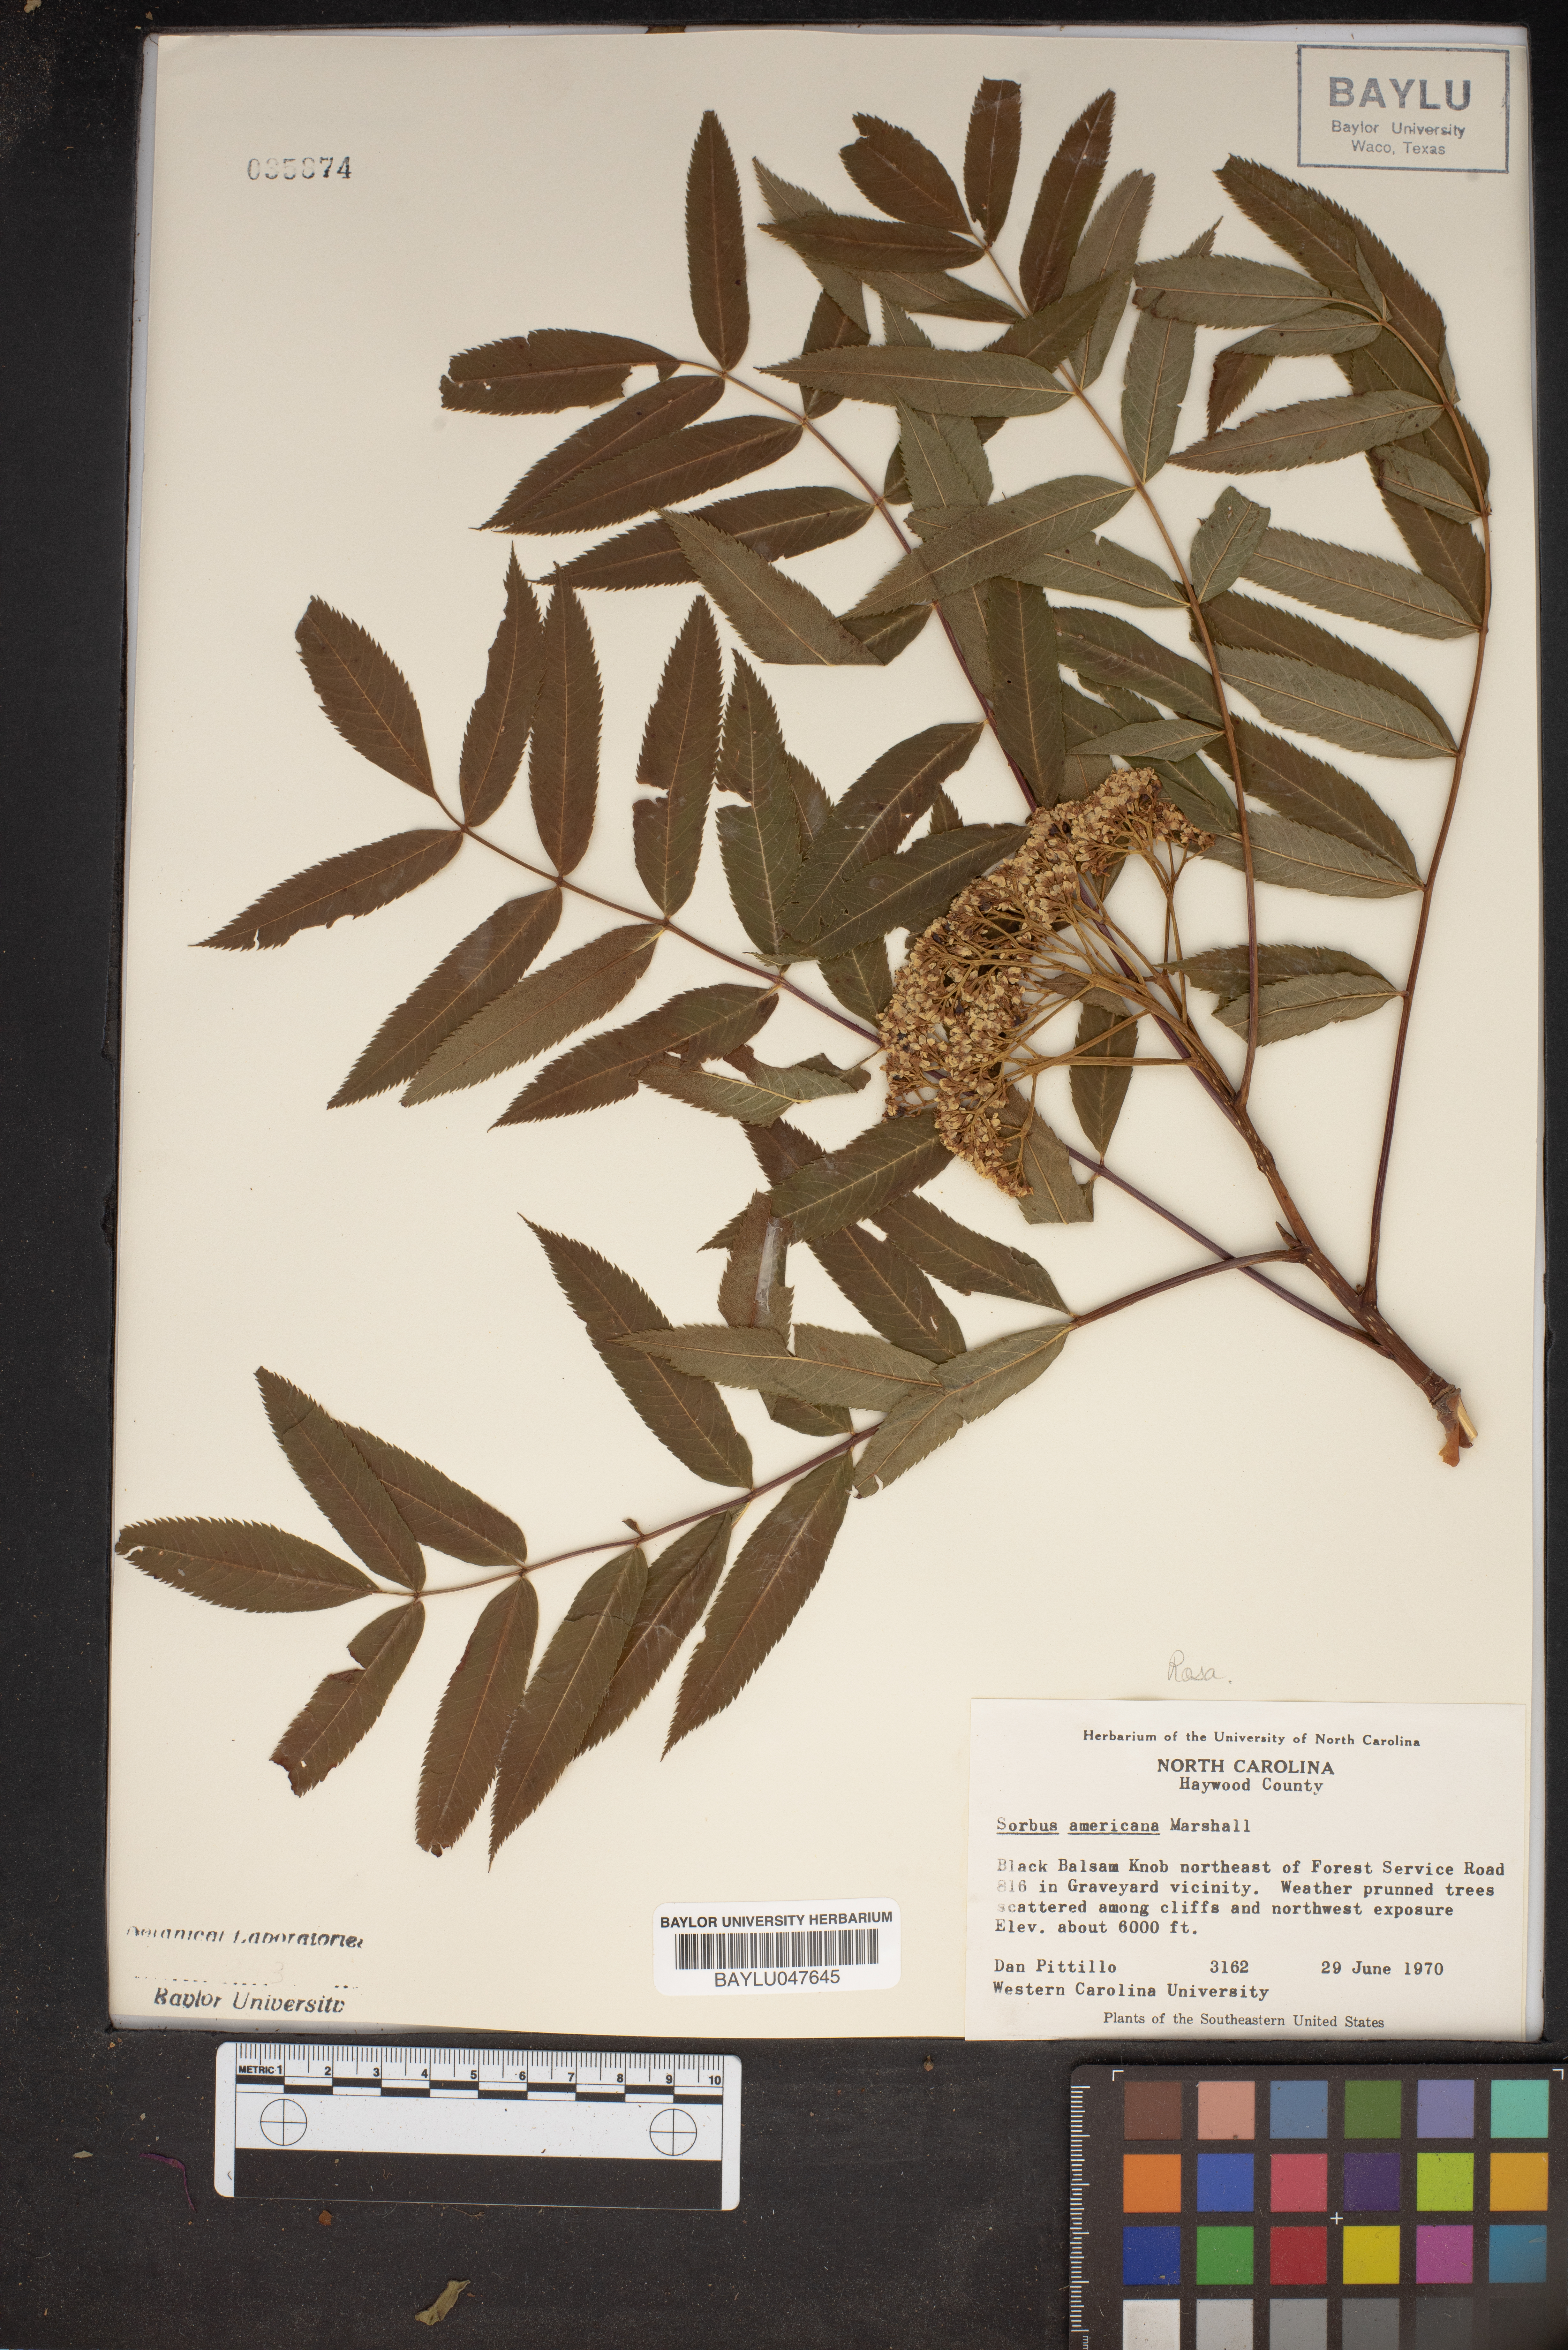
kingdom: Plantae
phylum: Tracheophyta
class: Magnoliopsida
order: Rosales
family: Rosaceae
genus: Sorbus
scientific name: Sorbus americana
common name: American mountain-ash
